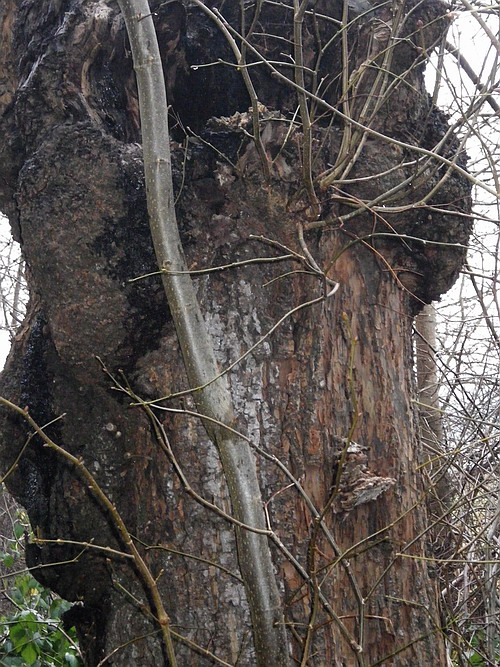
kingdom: Fungi
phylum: Basidiomycota
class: Agaricomycetes
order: Polyporales
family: Polyporaceae
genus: Ganoderma
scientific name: Ganoderma adspersum
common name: grov lakporesvamp
